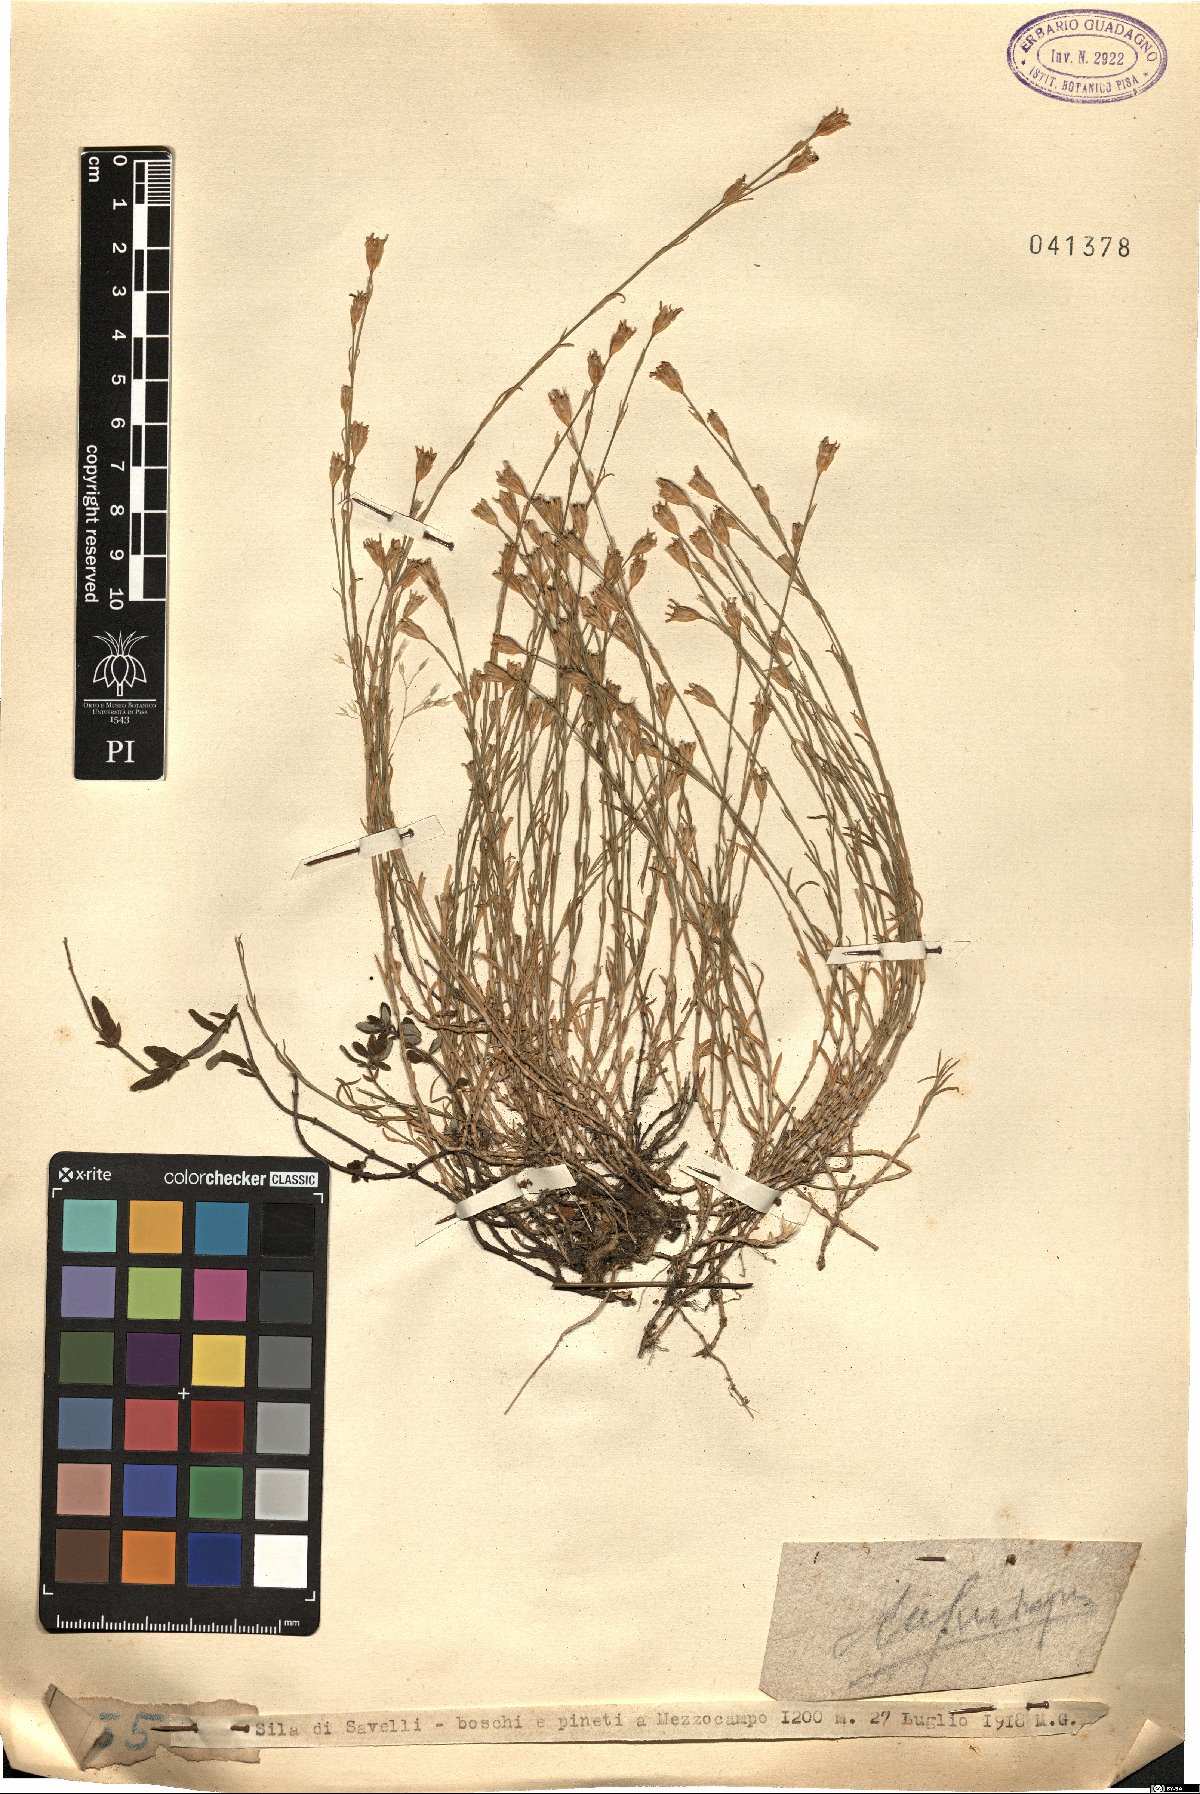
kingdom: Plantae
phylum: Tracheophyta
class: Magnoliopsida
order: Caryophyllales
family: Caryophyllaceae
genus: Tunica
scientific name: Tunica
